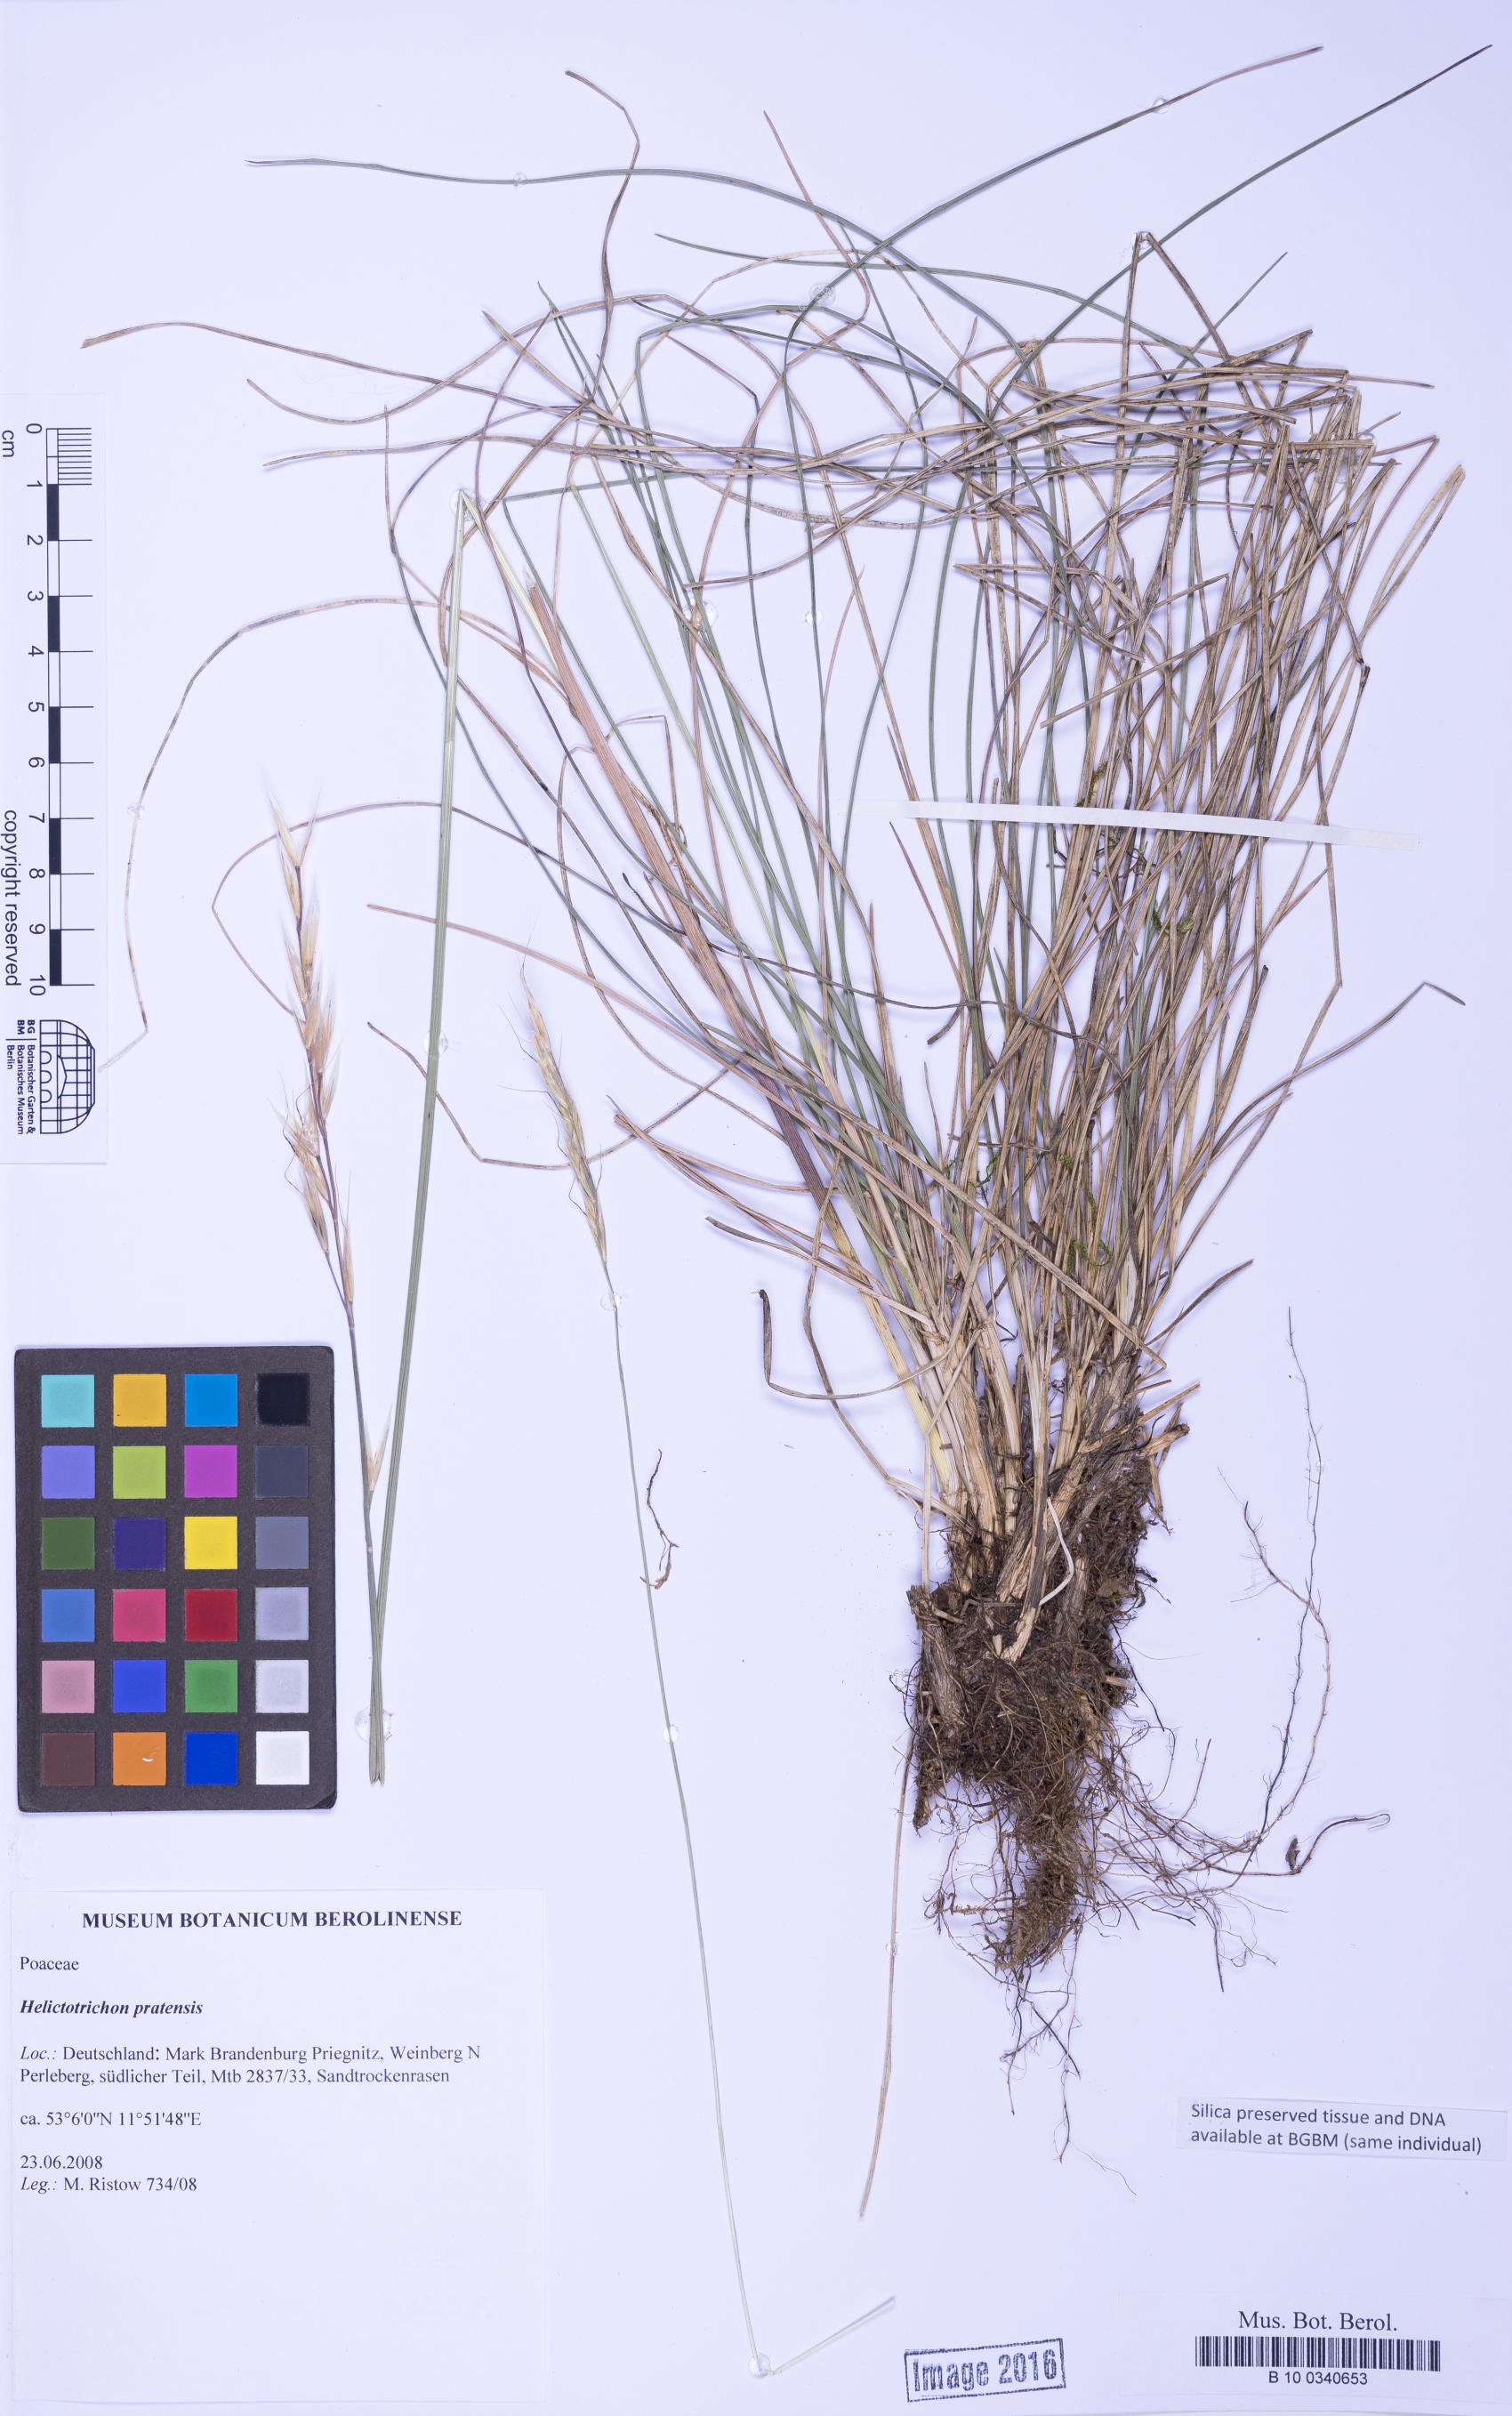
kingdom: Plantae
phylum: Tracheophyta
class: Liliopsida
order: Poales
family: Poaceae
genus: Helictotrichon
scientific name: Helictotrichon pratense
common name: Meadow oat-grass
